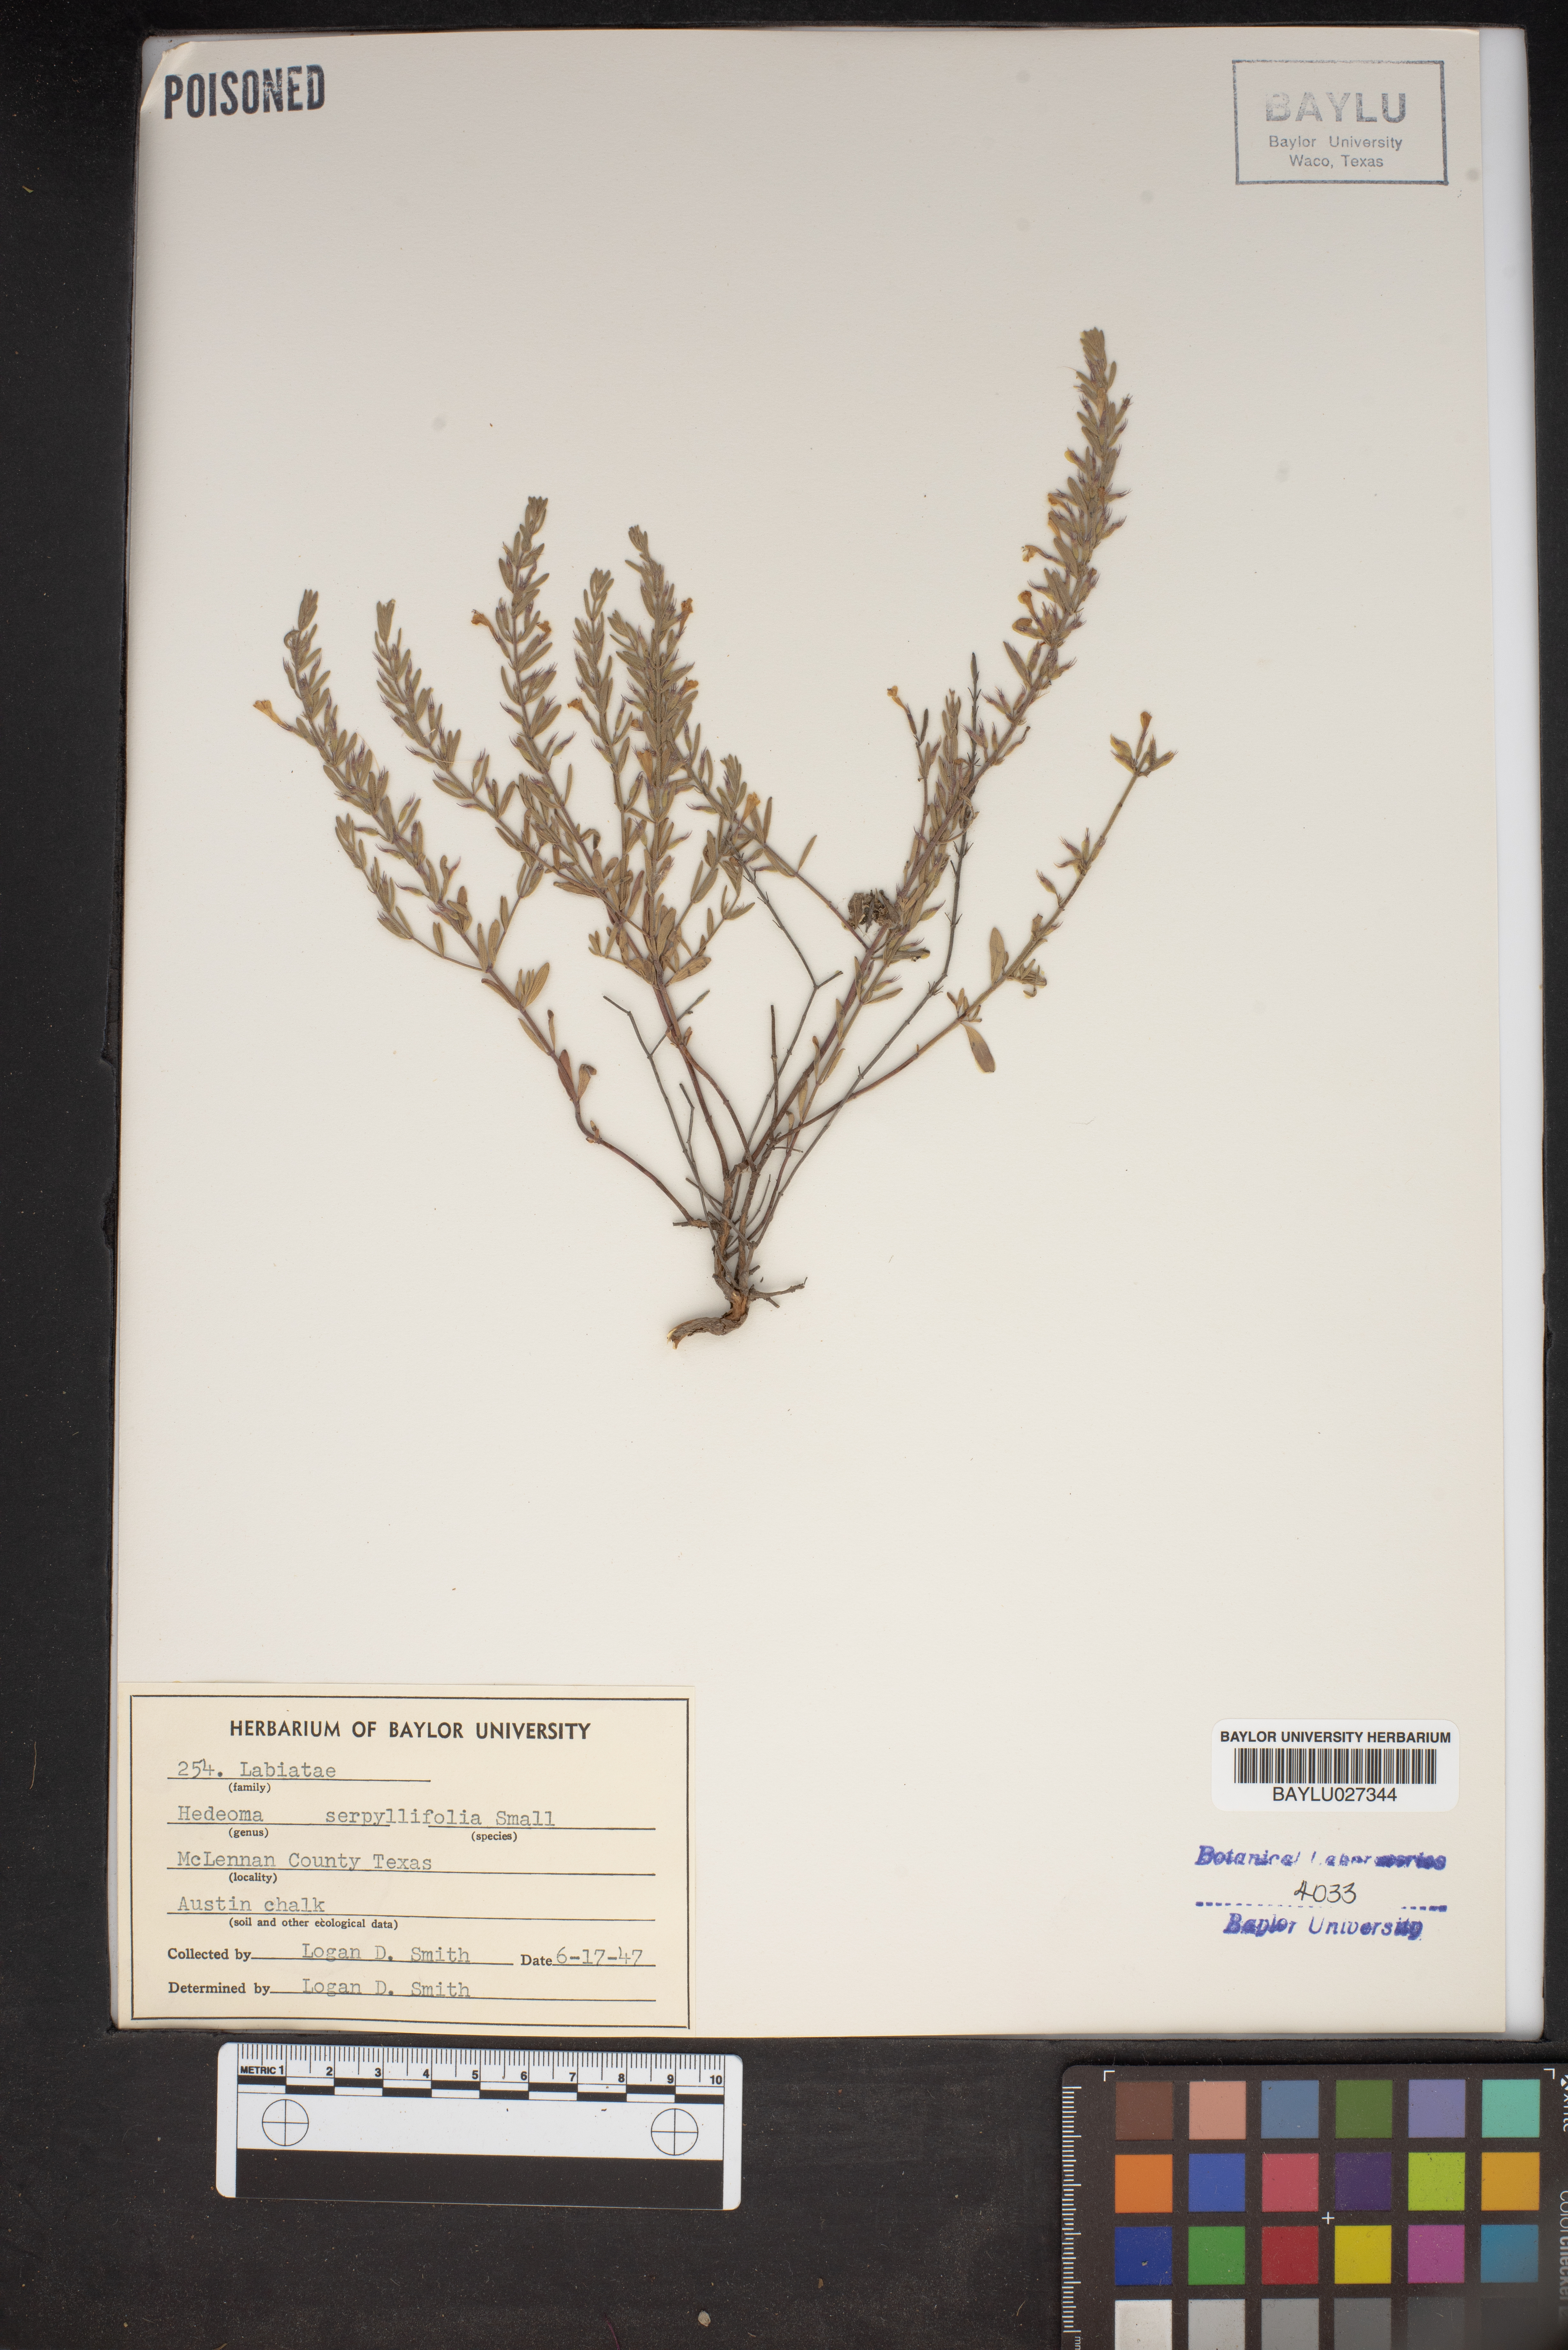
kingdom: Plantae
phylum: Tracheophyta
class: Magnoliopsida
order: Lamiales
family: Lamiaceae
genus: Hedeoma
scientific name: Hedeoma serpyllifolia
